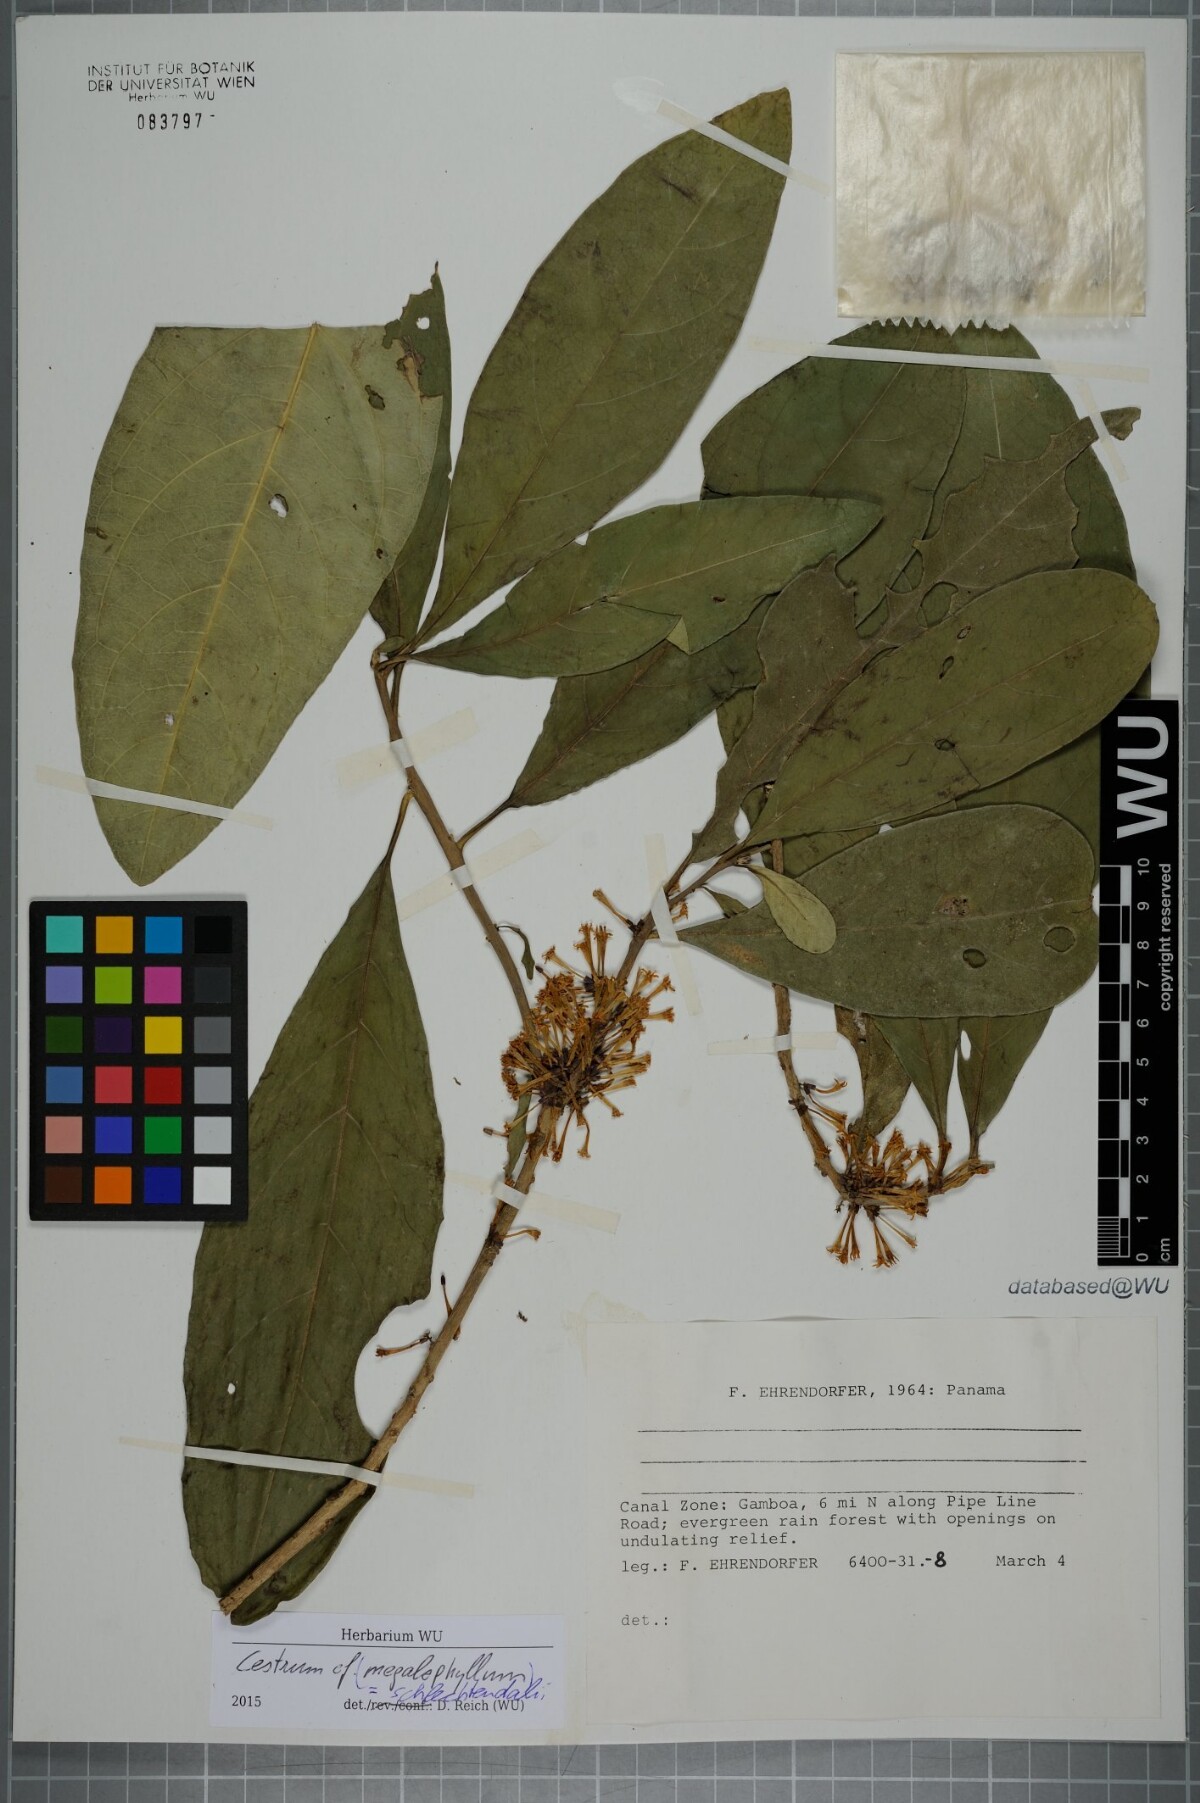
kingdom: Plantae
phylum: Tracheophyta
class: Magnoliopsida
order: Solanales
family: Solanaceae
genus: Cestrum
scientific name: Cestrum schlechtendalii
